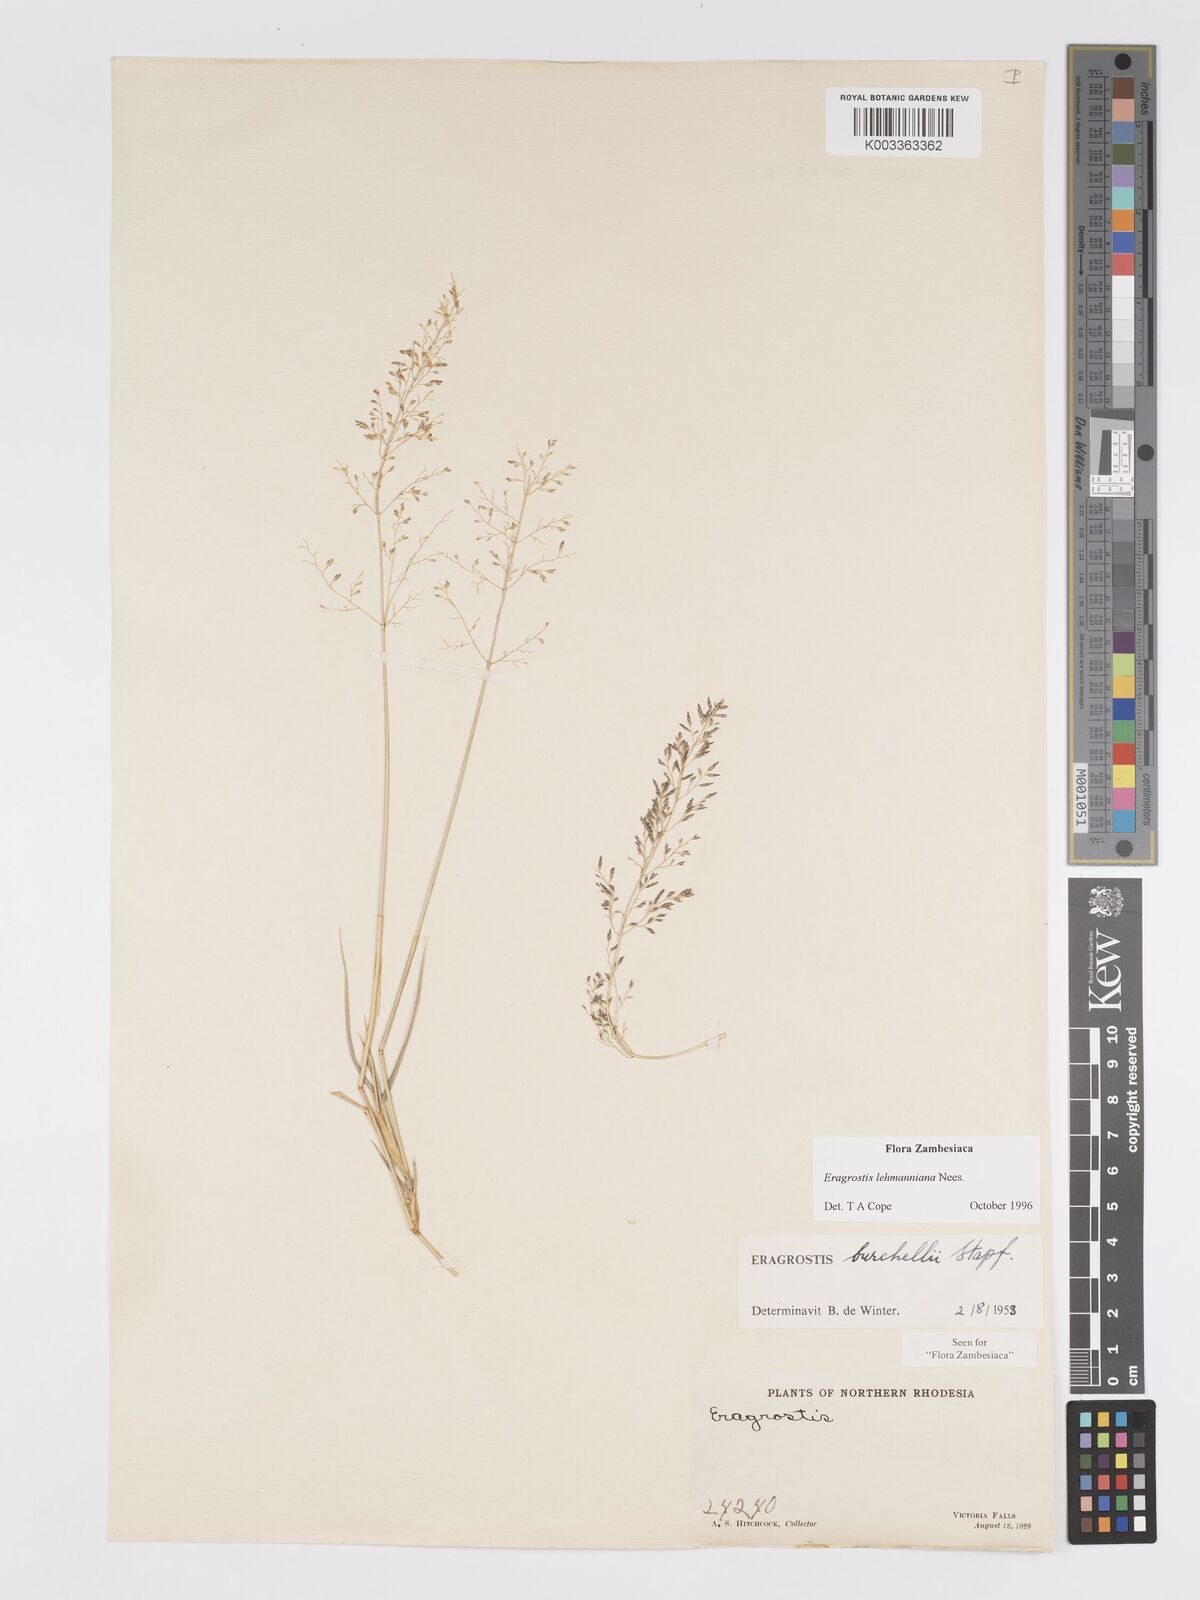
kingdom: Plantae
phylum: Tracheophyta
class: Liliopsida
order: Poales
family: Poaceae
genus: Eragrostis
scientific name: Eragrostis lehmanniana
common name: Lehmann lovegrass
